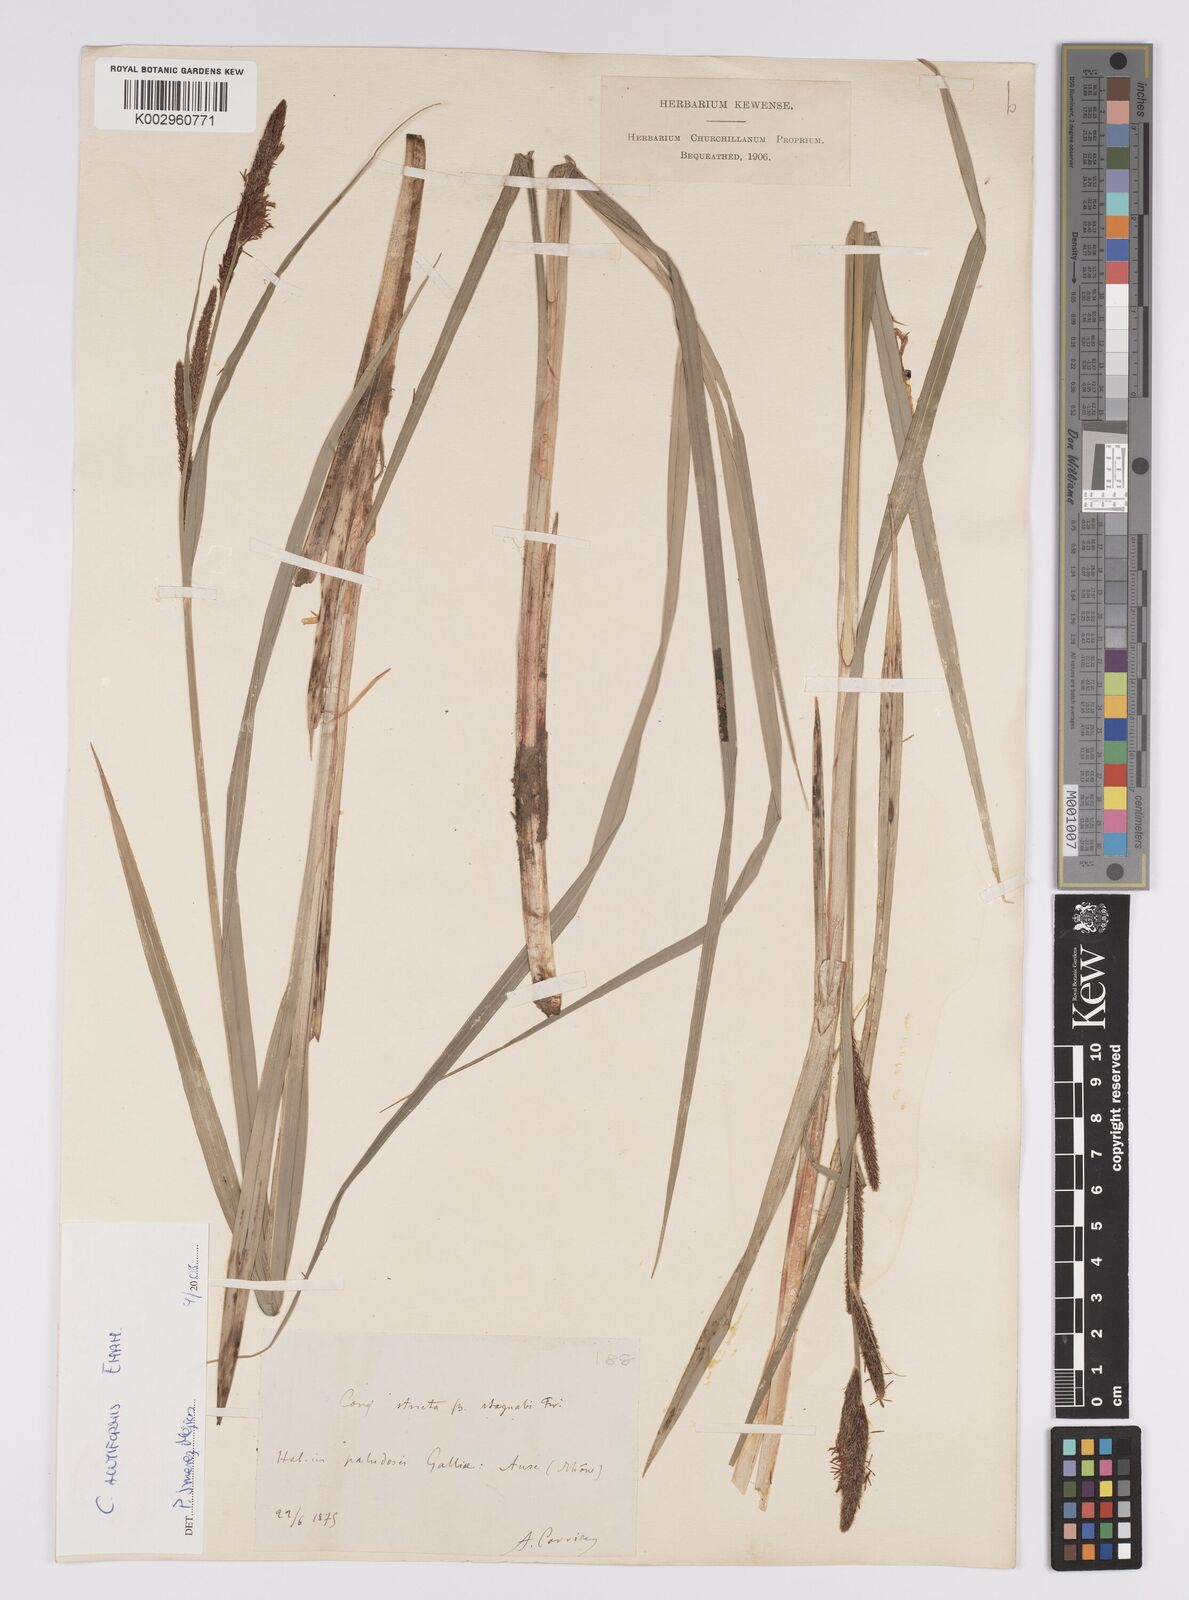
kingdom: Plantae
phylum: Tracheophyta
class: Liliopsida
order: Poales
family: Cyperaceae
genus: Carex
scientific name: Carex acutiformis
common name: Lesser pond-sedge
